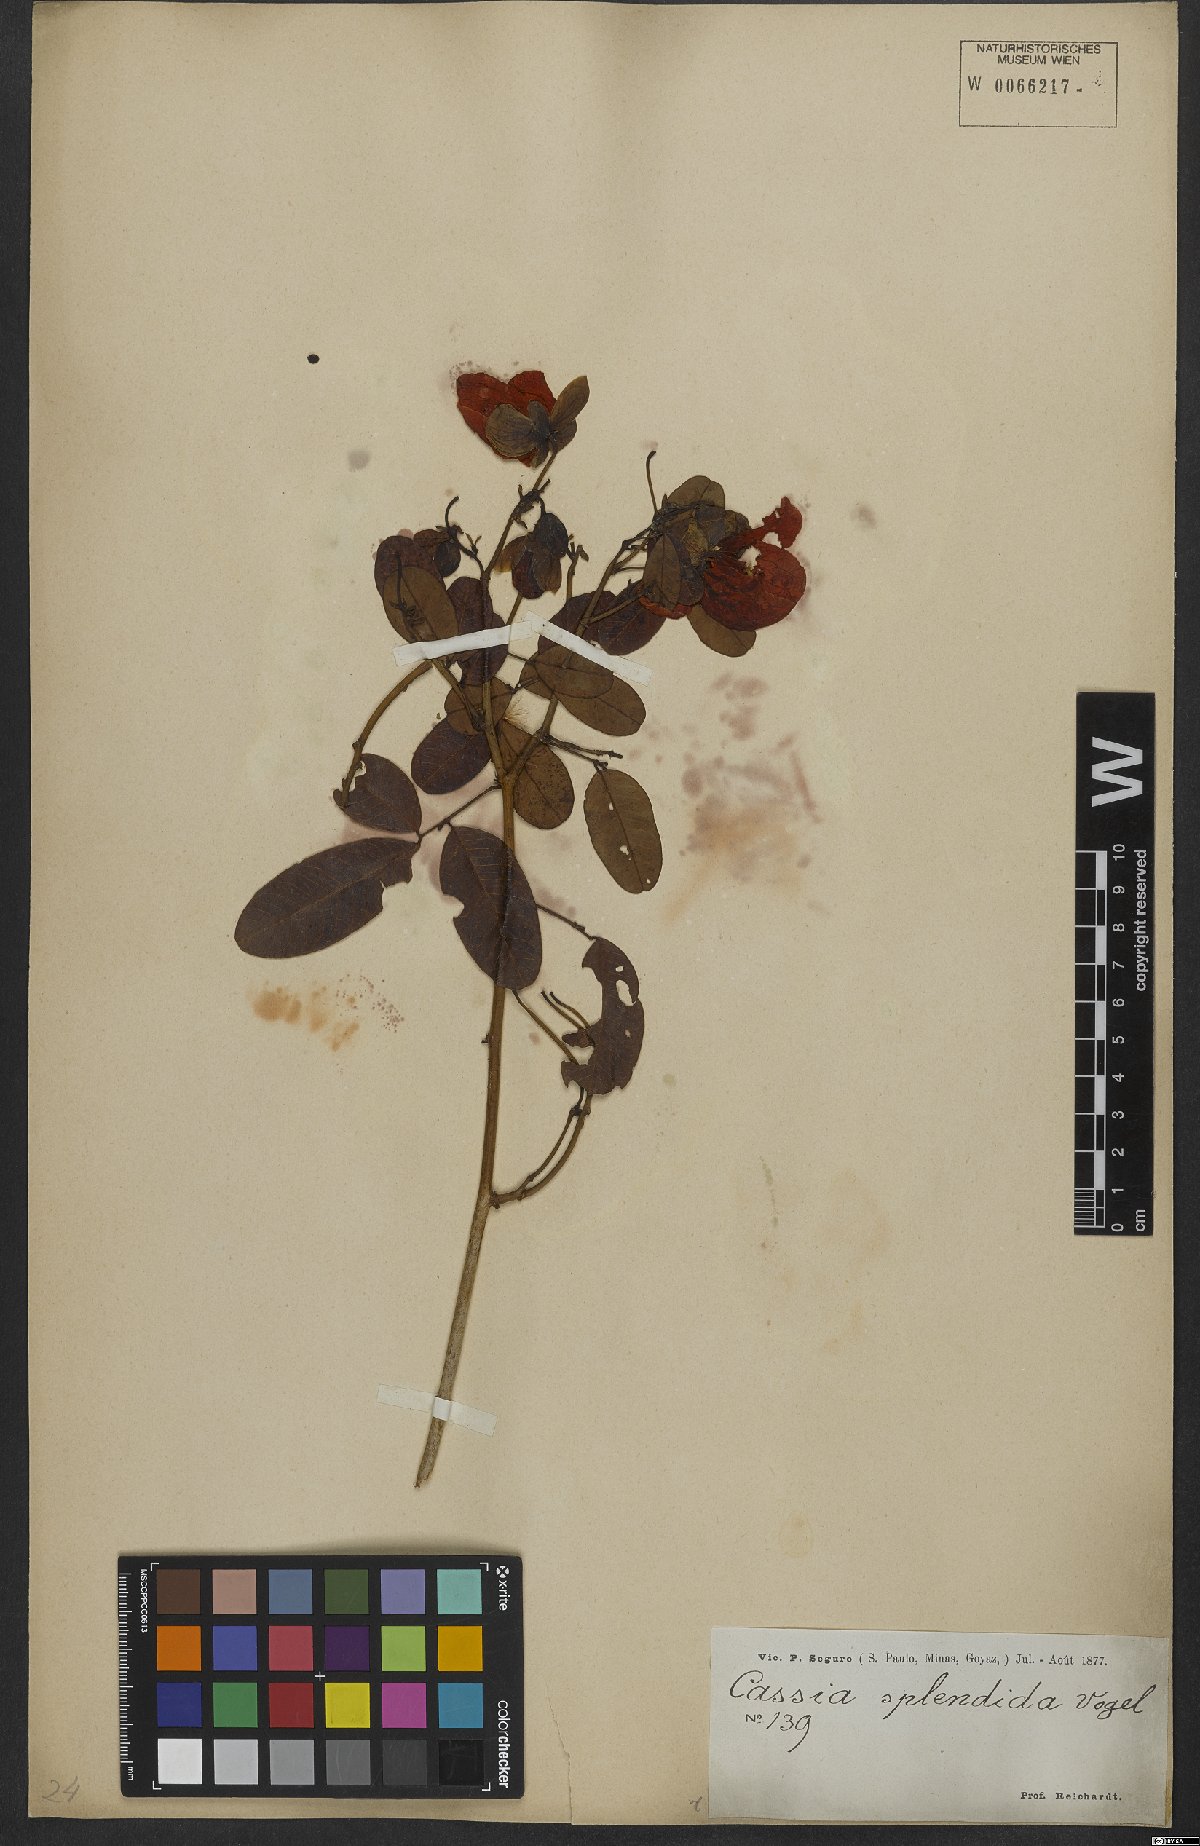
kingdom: Plantae
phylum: Tracheophyta
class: Magnoliopsida
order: Fabales
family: Fabaceae
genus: Senna
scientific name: Senna splendida
